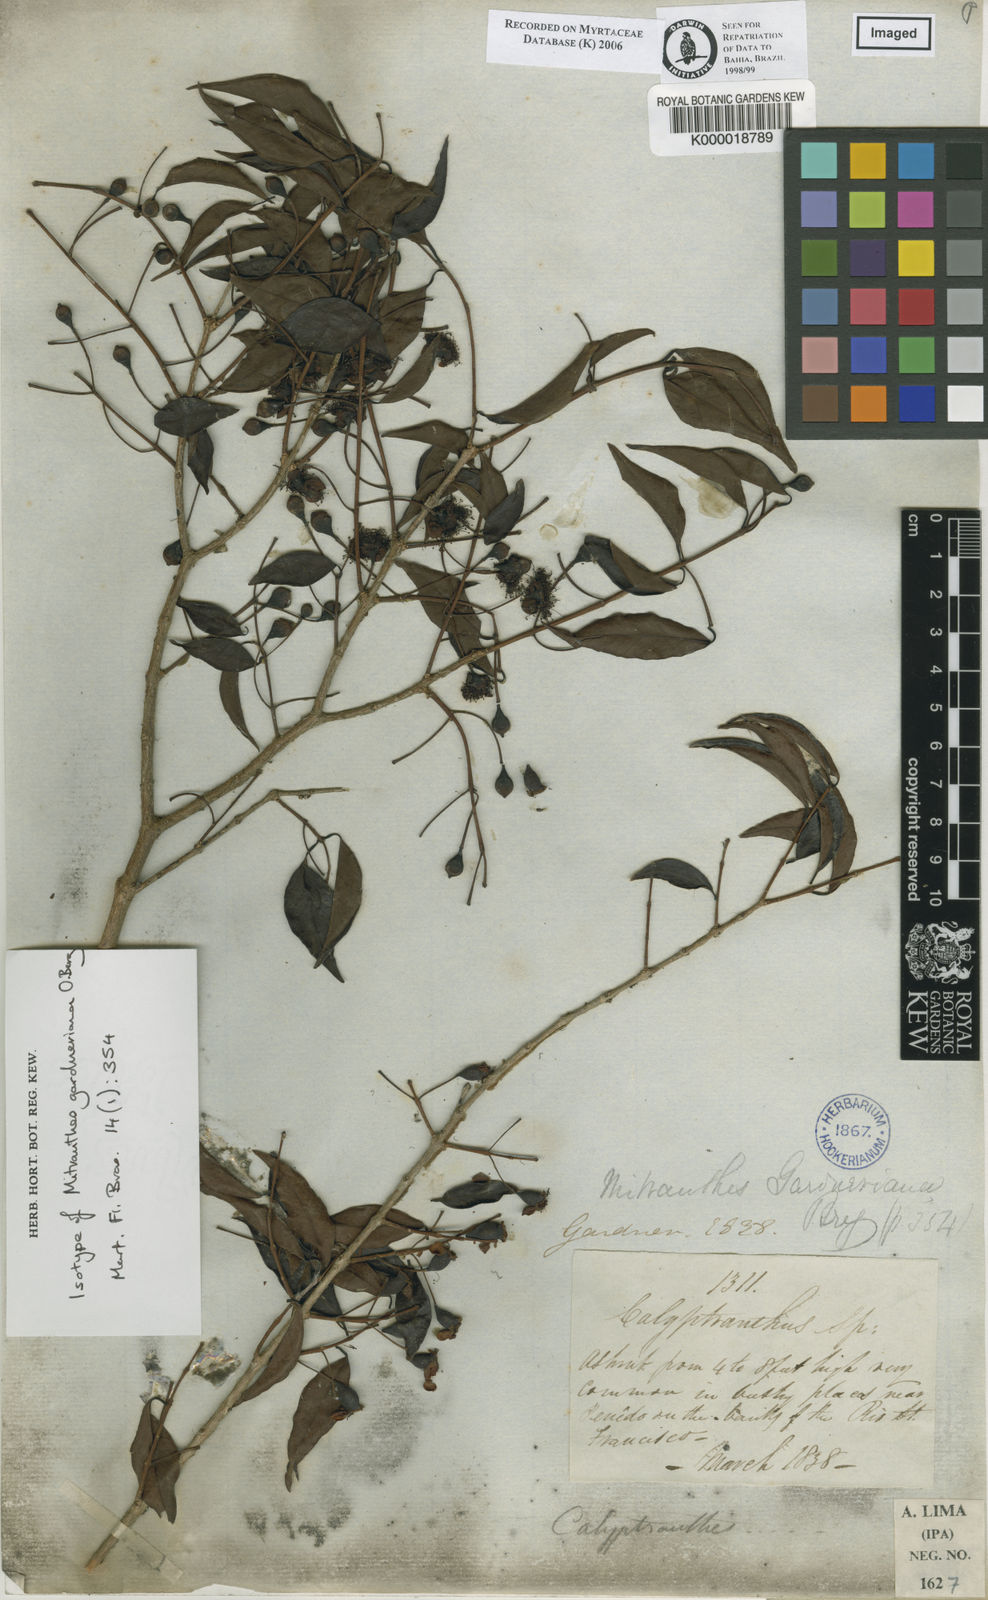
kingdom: Plantae
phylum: Tracheophyta
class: Magnoliopsida
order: Myrtales
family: Myrtaceae
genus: Psidium
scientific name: Psidium oligospermum
